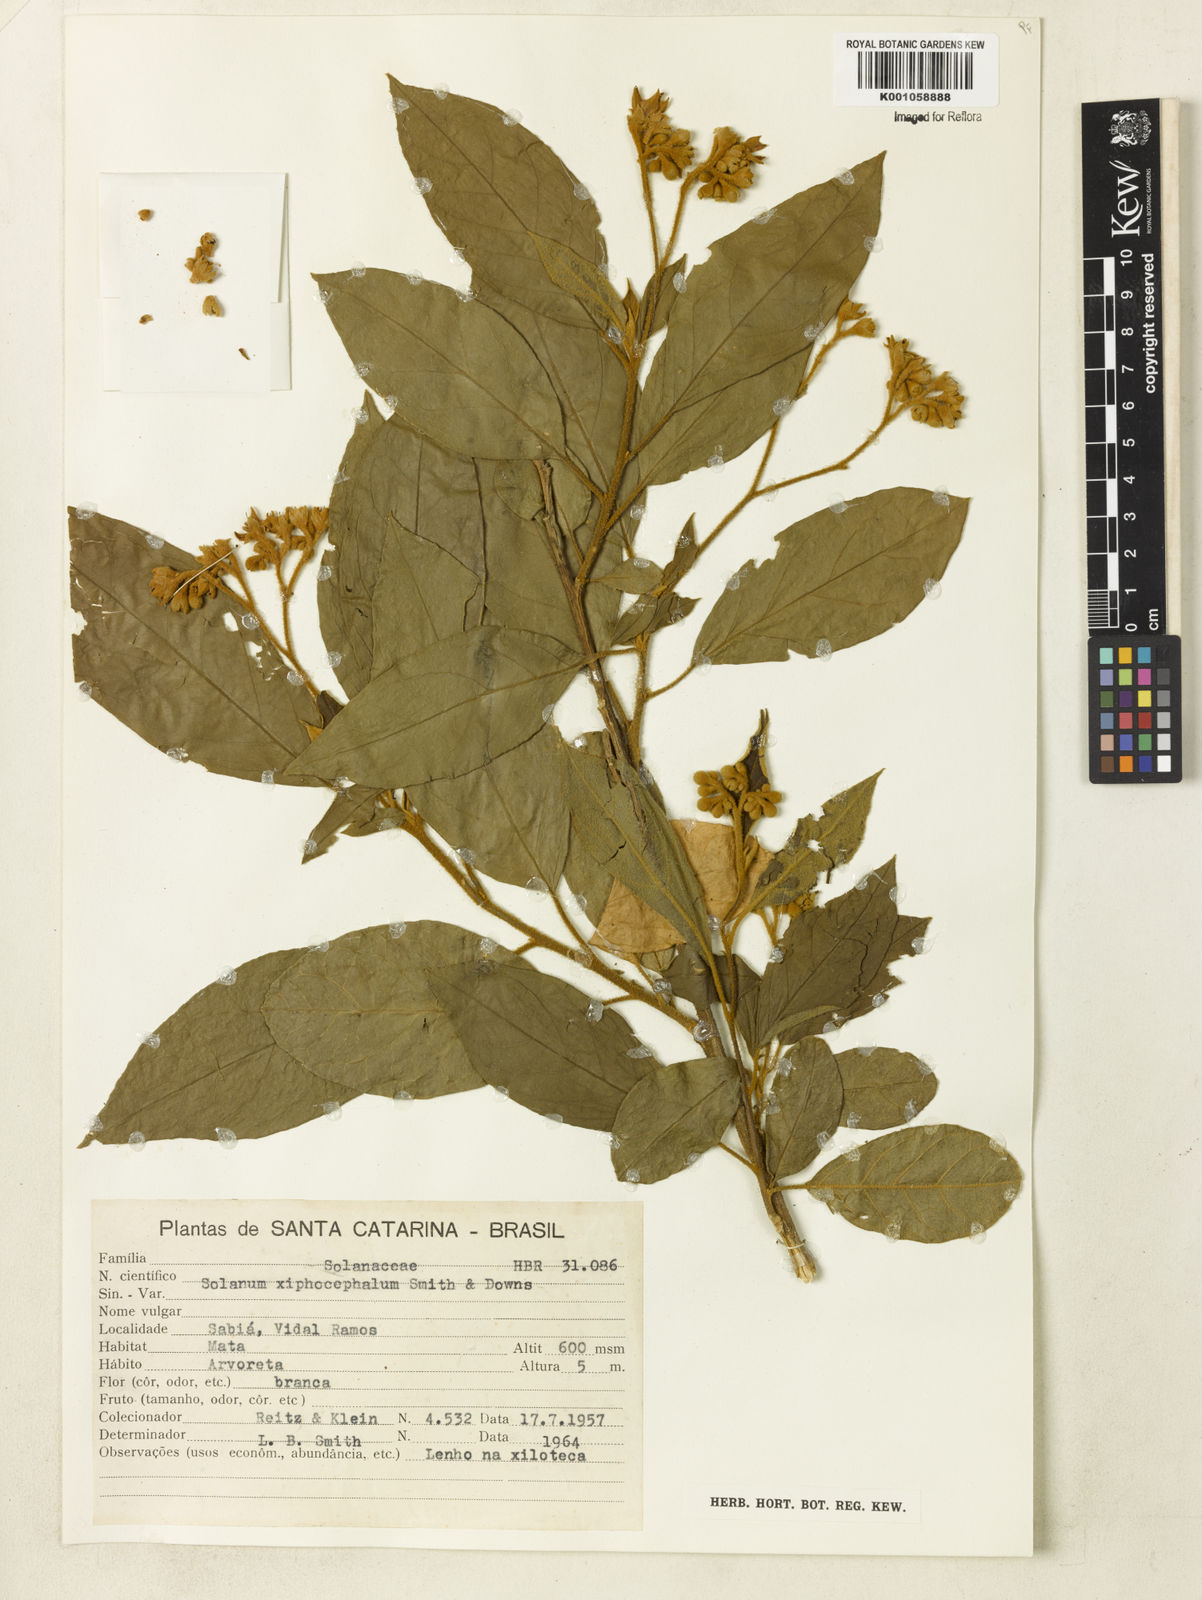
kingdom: Plantae
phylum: Tracheophyta
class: Magnoliopsida
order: Solanales
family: Solanaceae
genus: Solanum
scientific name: Solanum rufescens
